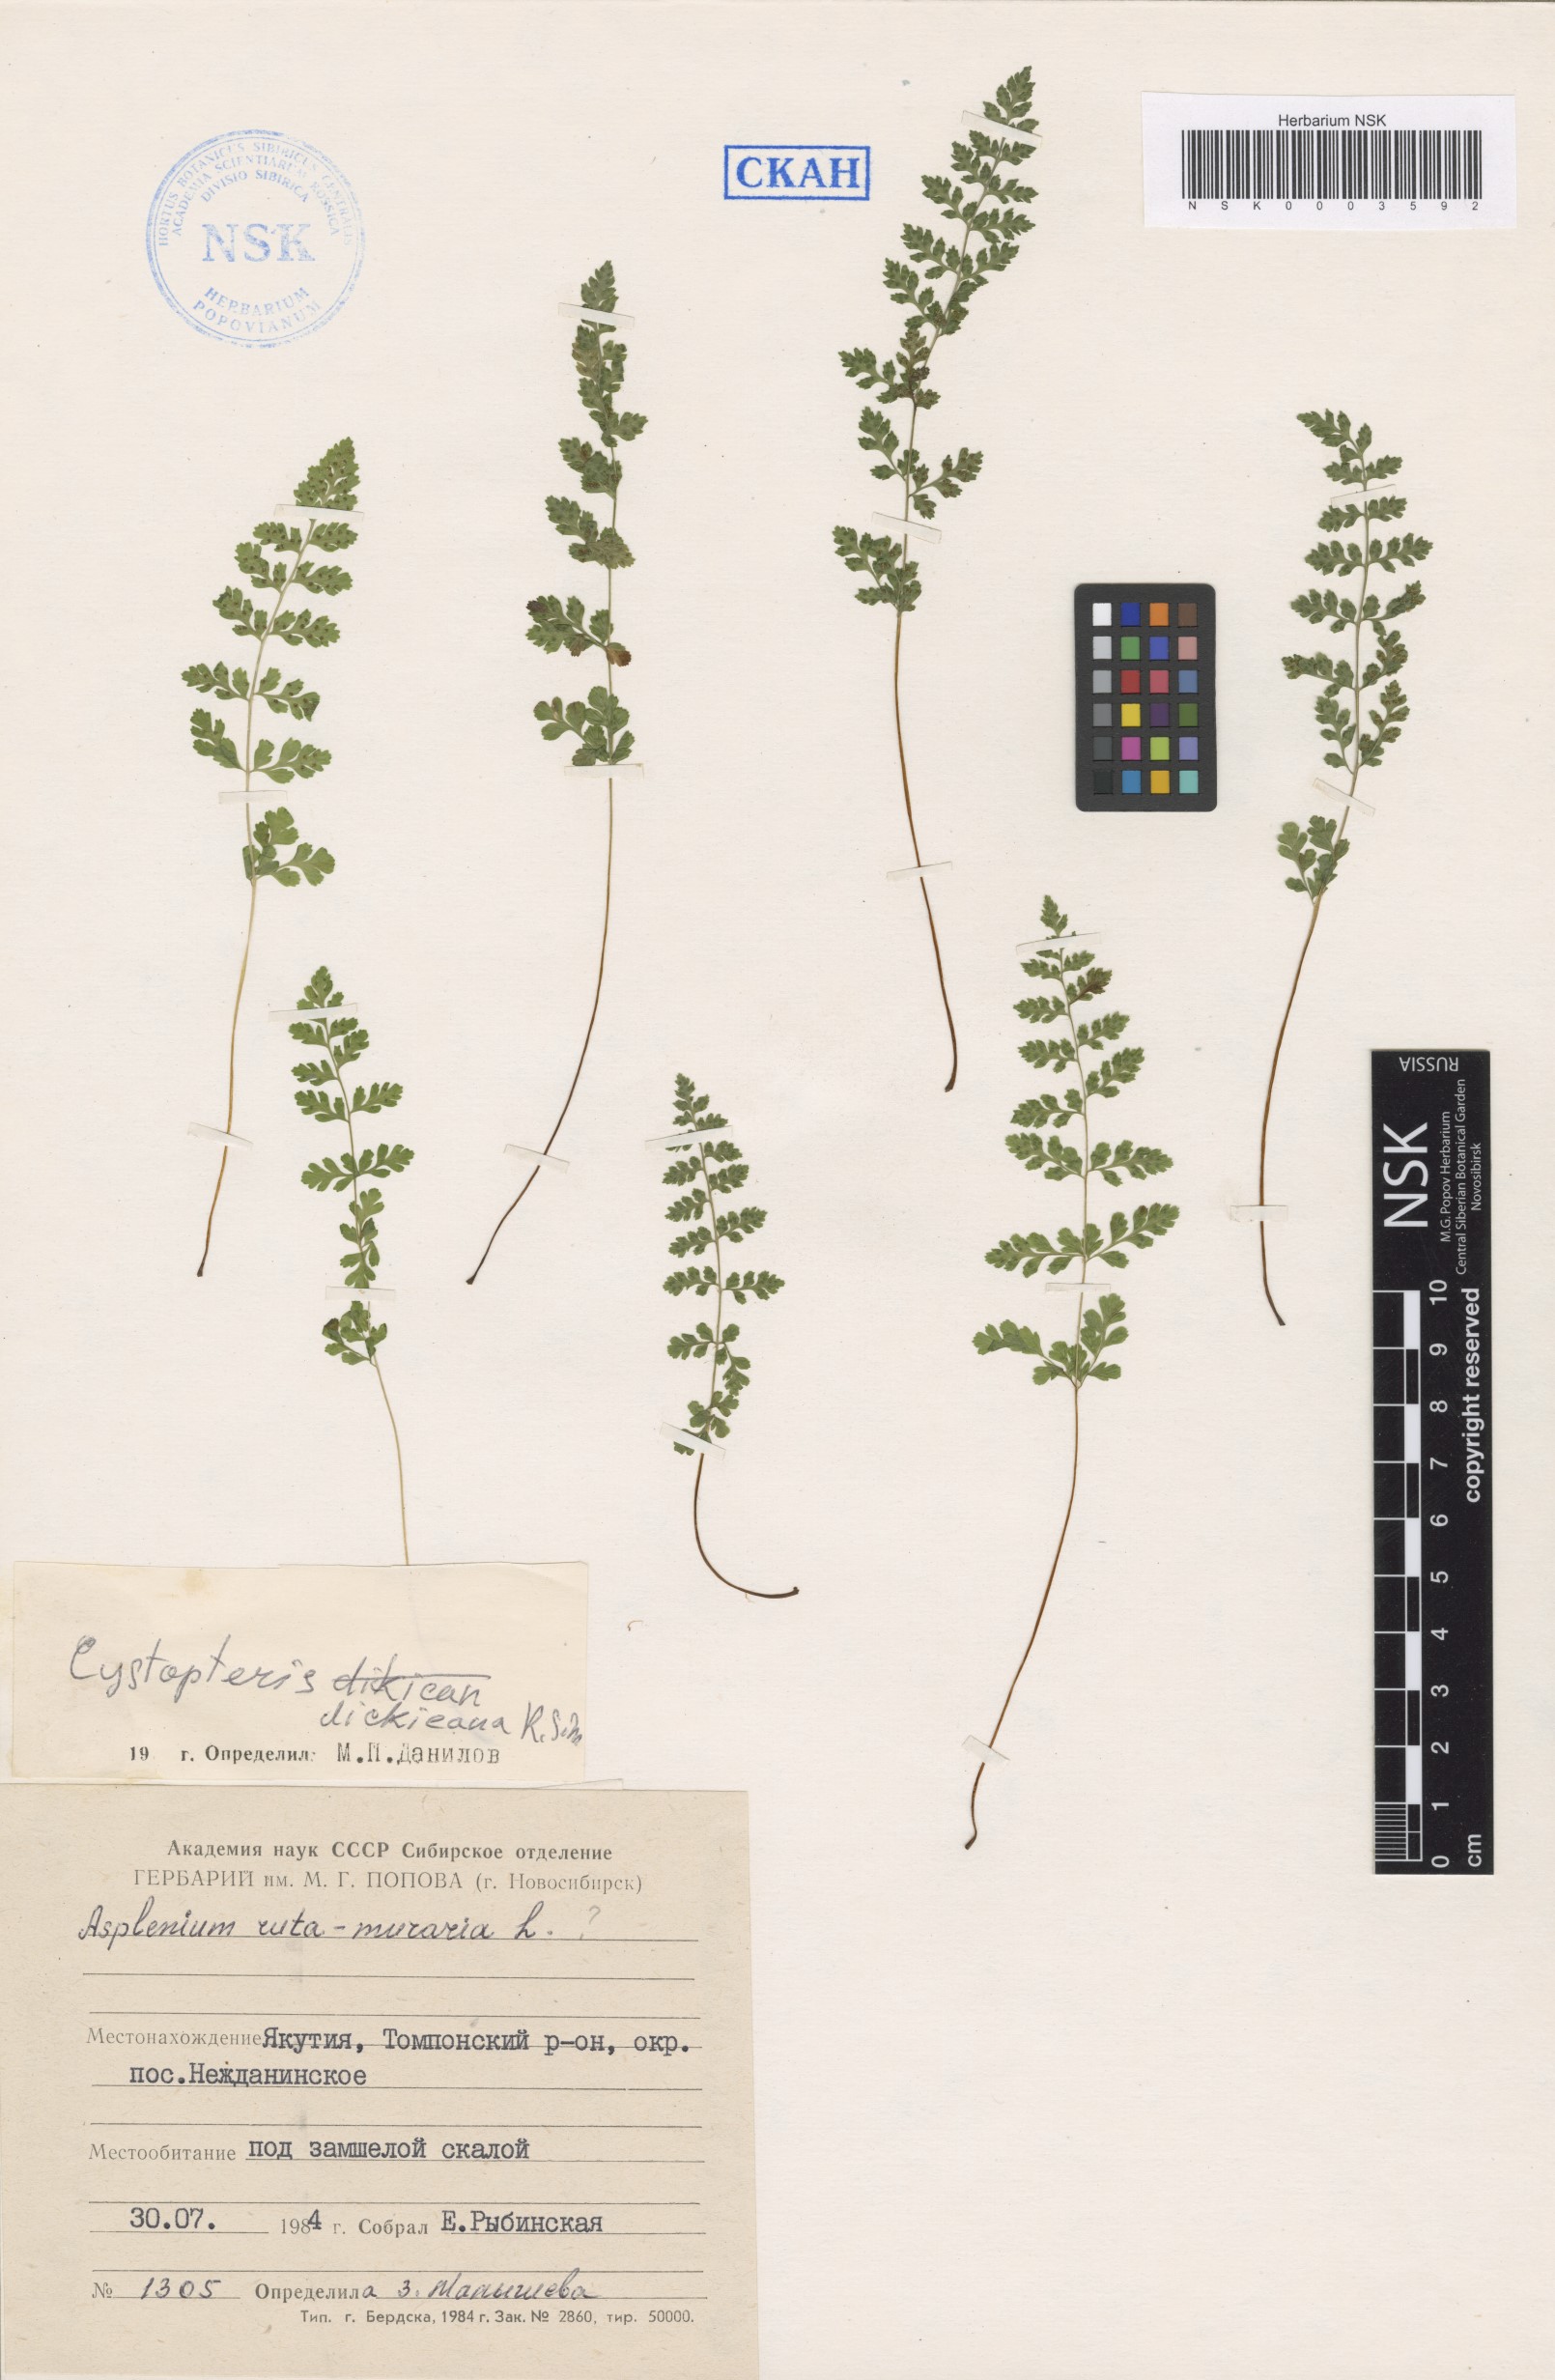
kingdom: Plantae
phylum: Tracheophyta
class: Polypodiopsida
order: Polypodiales
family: Cystopteridaceae
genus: Cystopteris
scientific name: Cystopteris dickieana
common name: Dickie's bladder-fern
